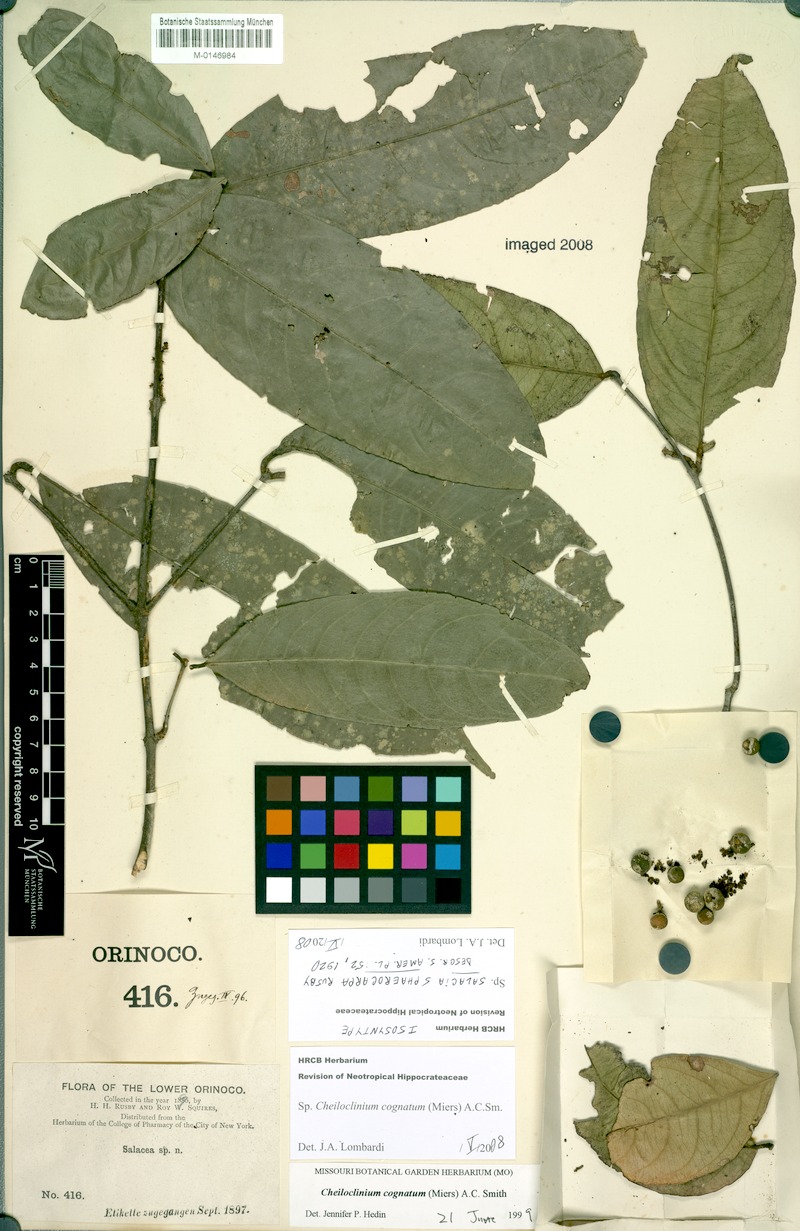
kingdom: Plantae
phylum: Tracheophyta
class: Magnoliopsida
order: Celastrales
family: Celastraceae
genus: Cheiloclinium
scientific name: Cheiloclinium cognatum
